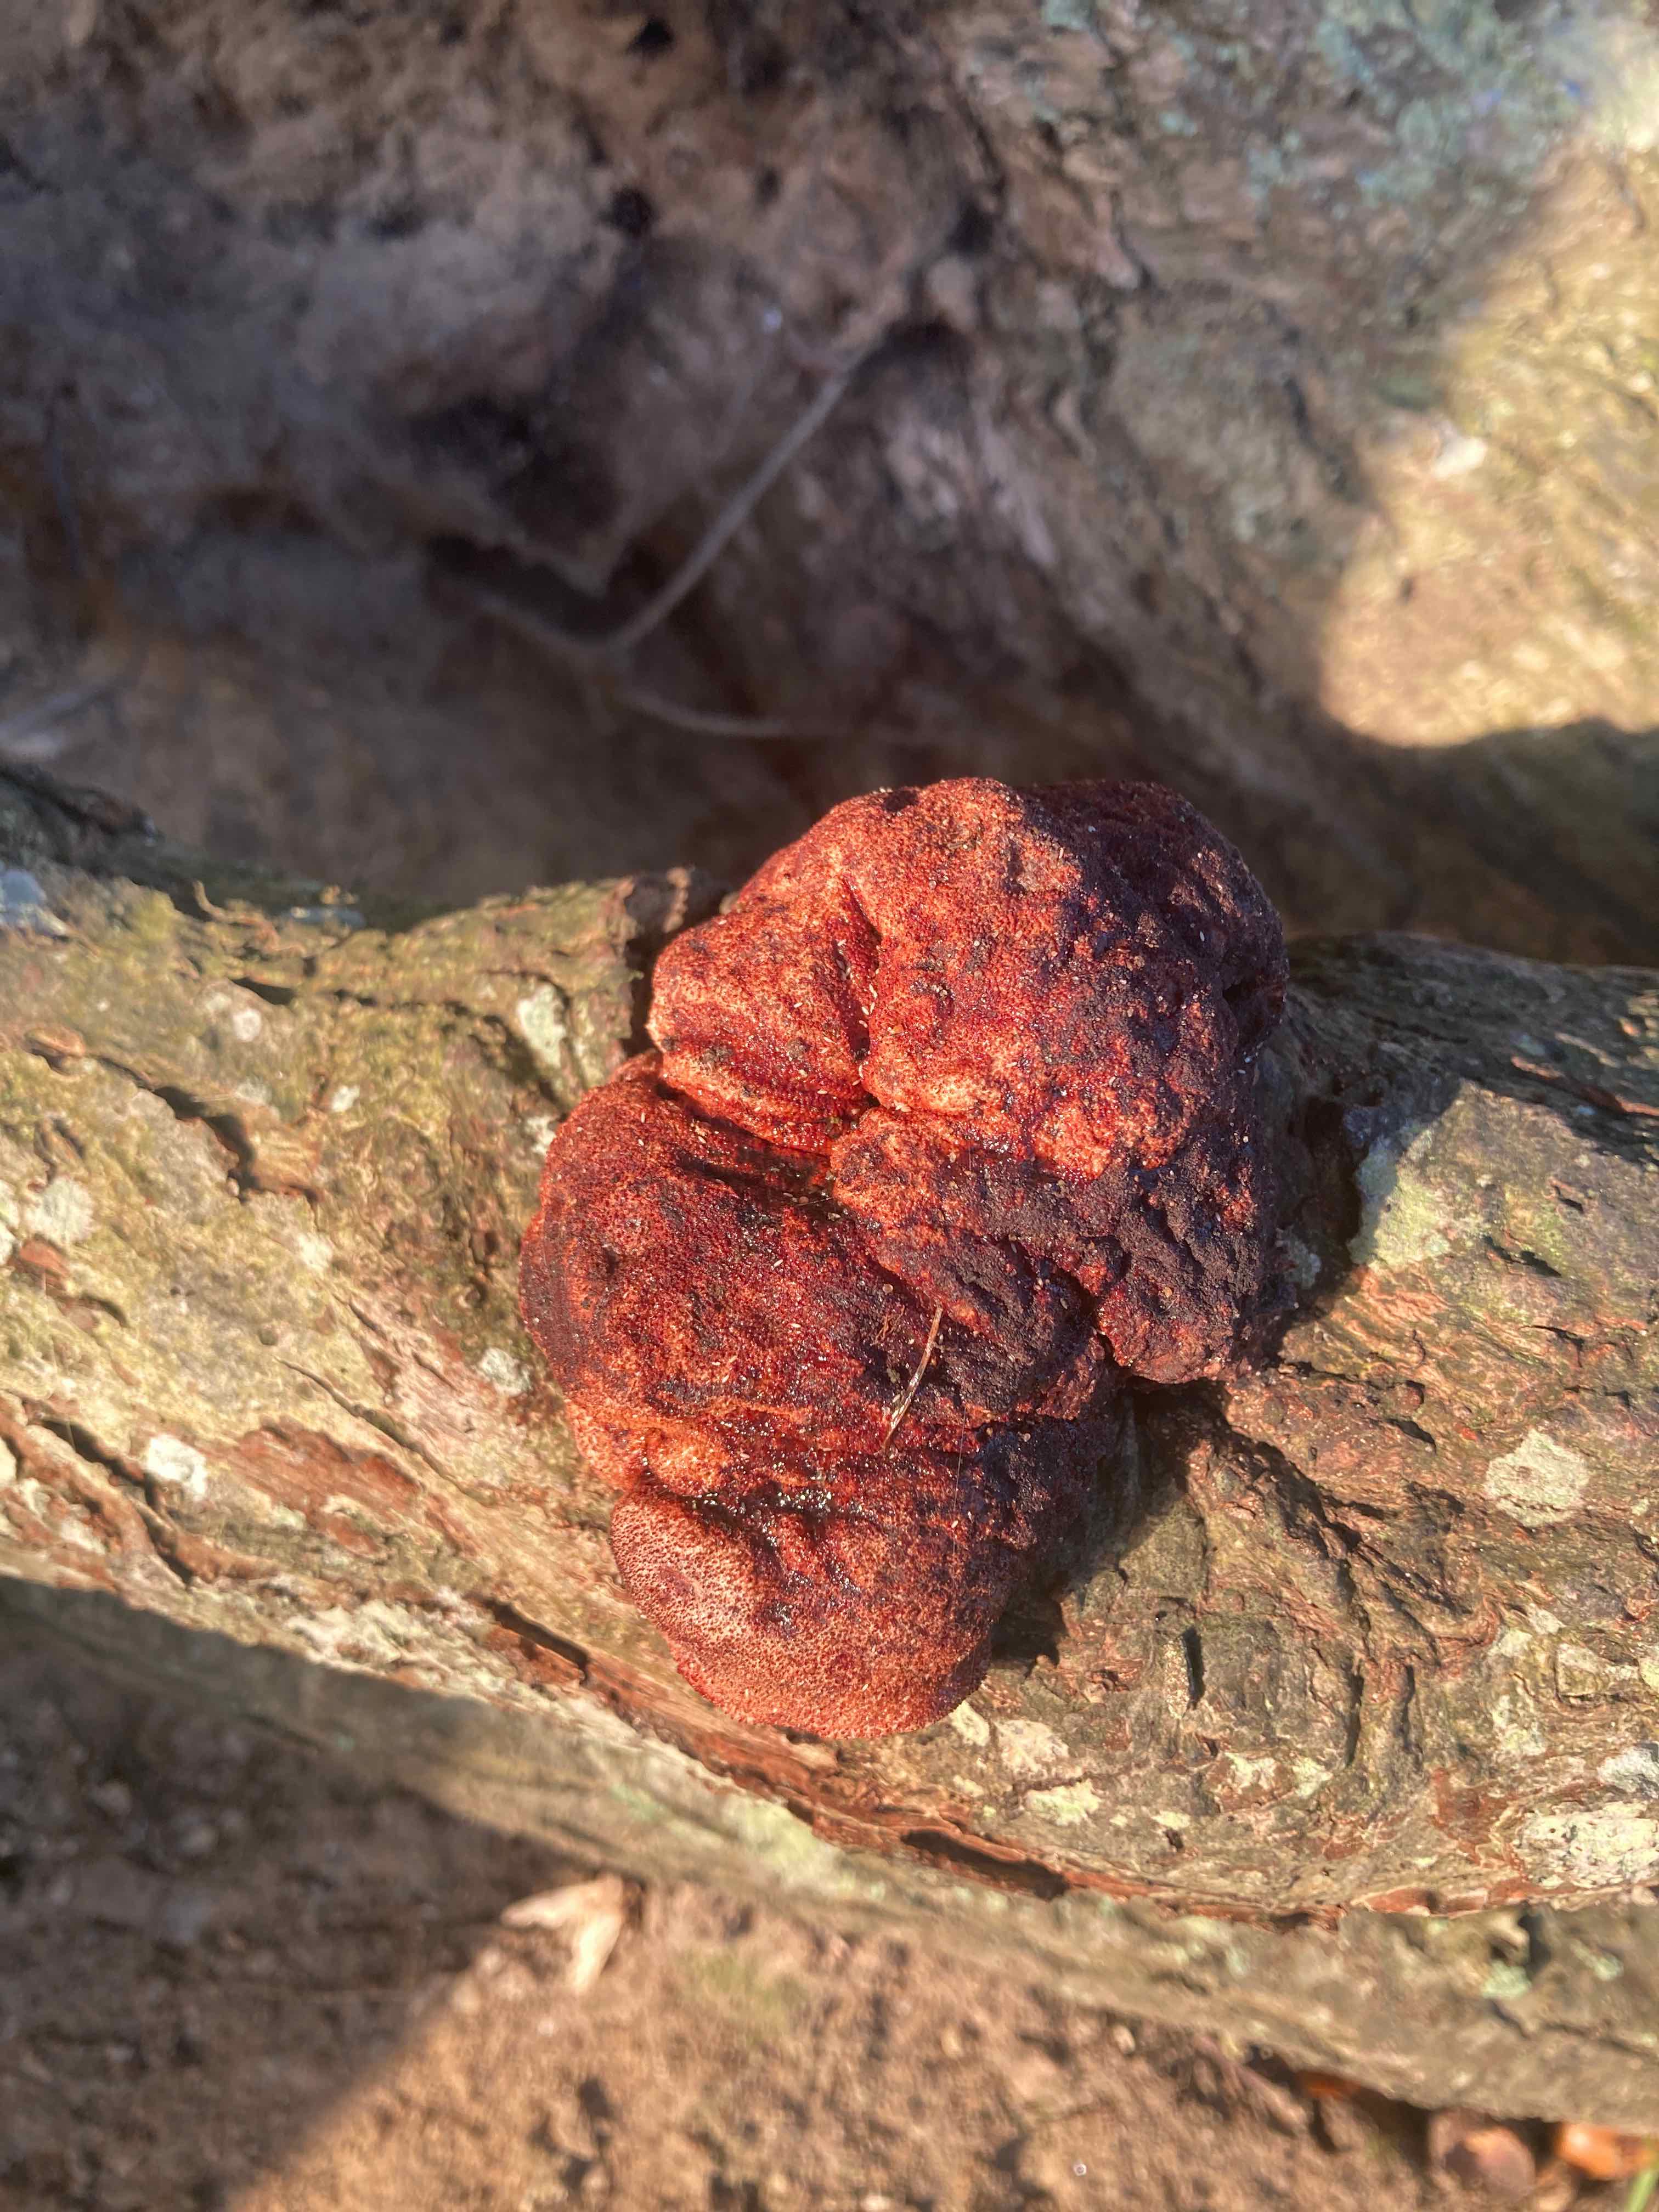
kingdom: Fungi
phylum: Basidiomycota
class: Agaricomycetes
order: Agaricales
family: Fistulinaceae
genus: Fistulina
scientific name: Fistulina hepatica
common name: oksetunge
